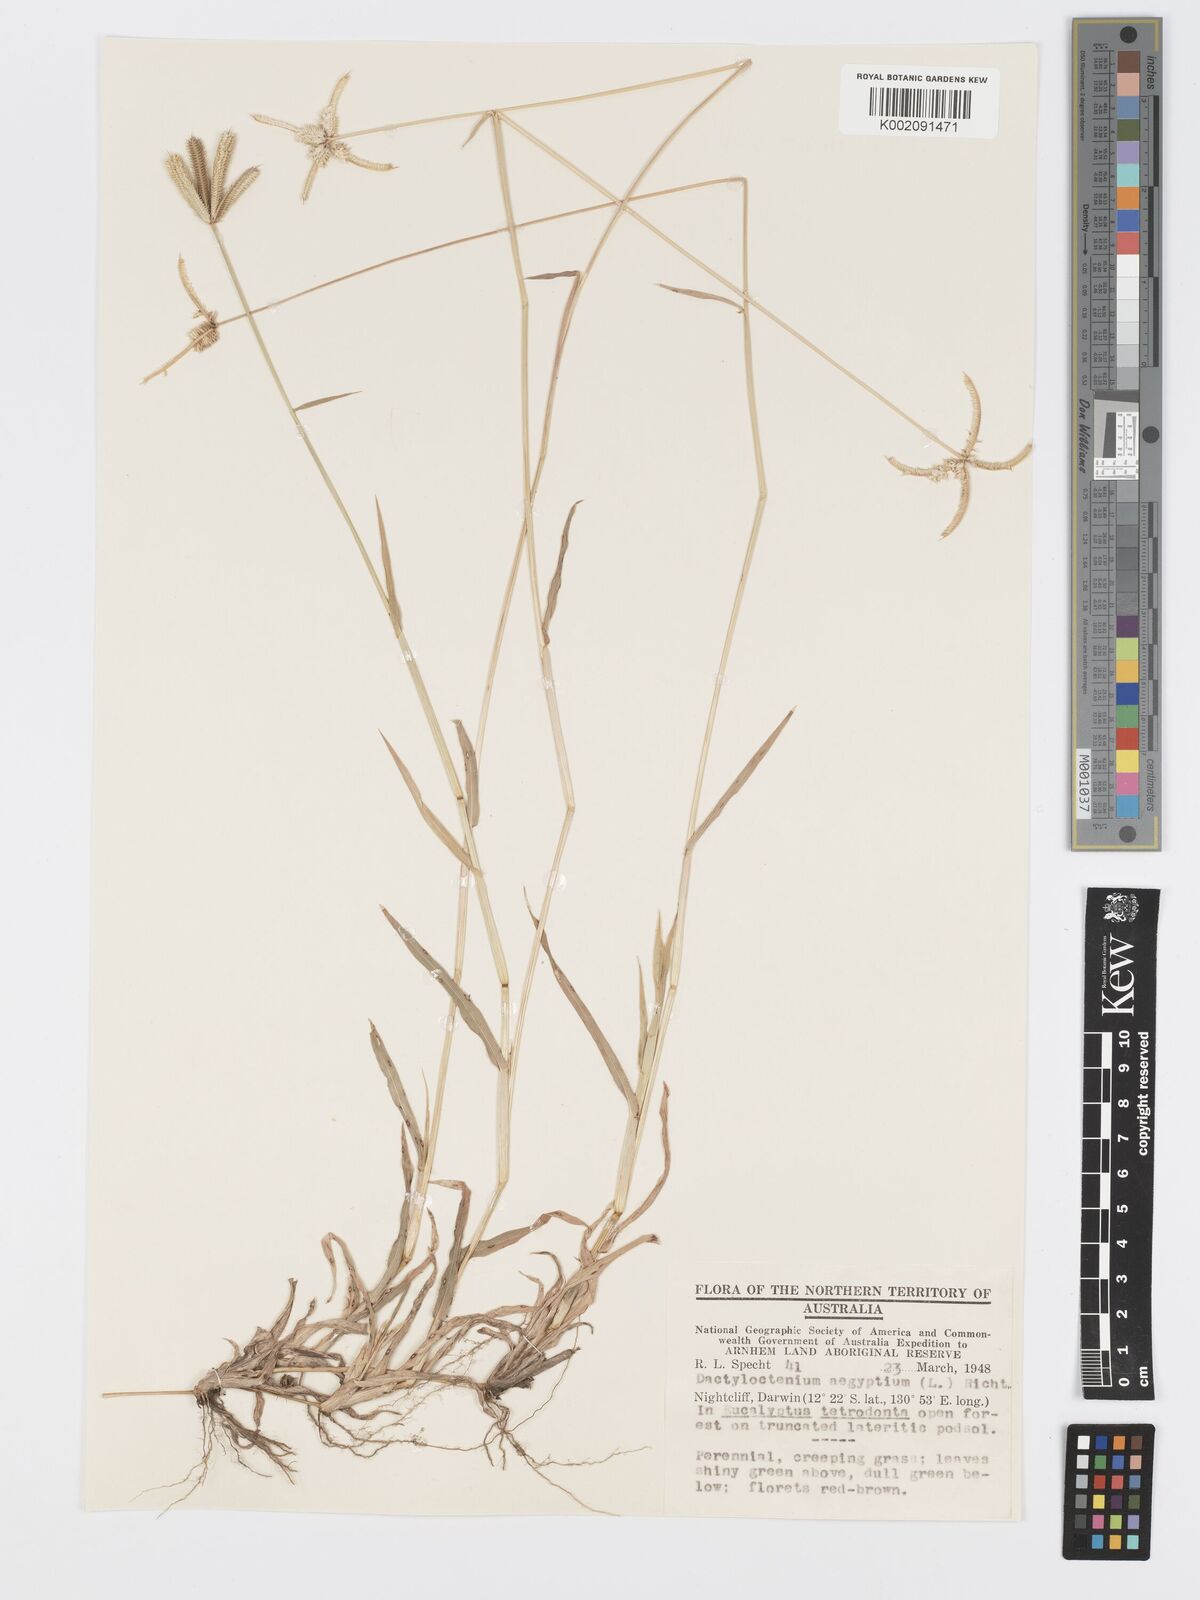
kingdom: Plantae
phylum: Tracheophyta
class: Liliopsida
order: Poales
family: Poaceae
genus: Dactyloctenium
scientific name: Dactyloctenium aegyptium
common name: Egyptian grass
